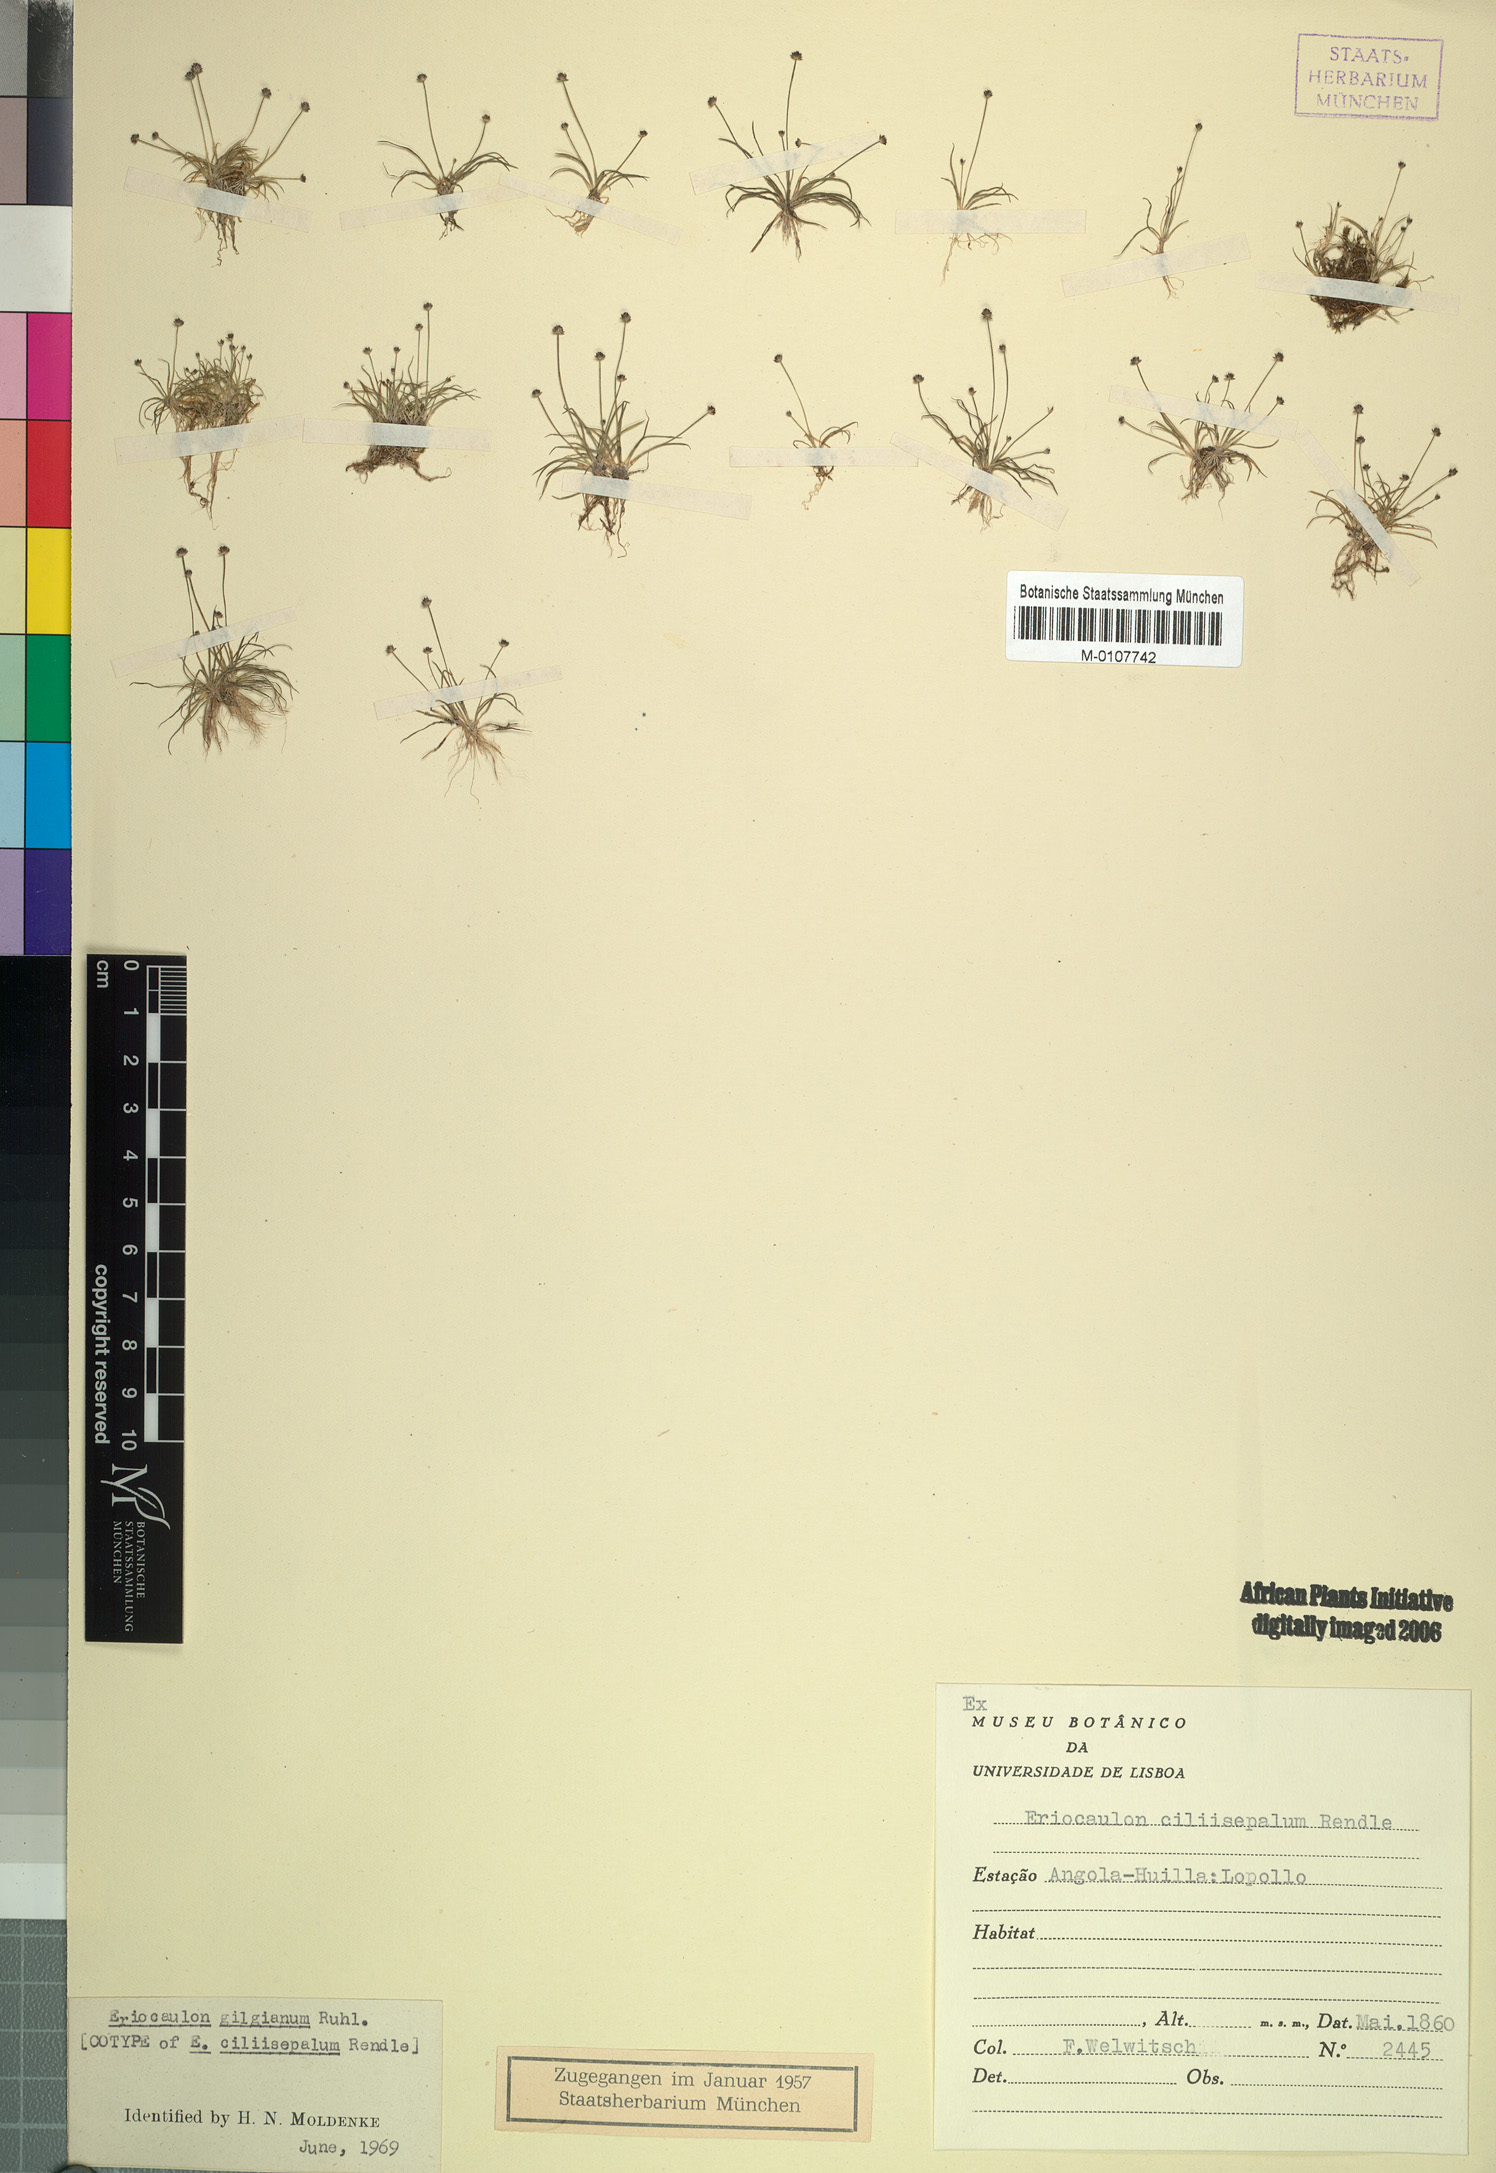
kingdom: Plantae
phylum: Tracheophyta
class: Liliopsida
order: Poales
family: Eriocaulaceae
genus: Eriocaulon
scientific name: Eriocaulon abyssinicum
